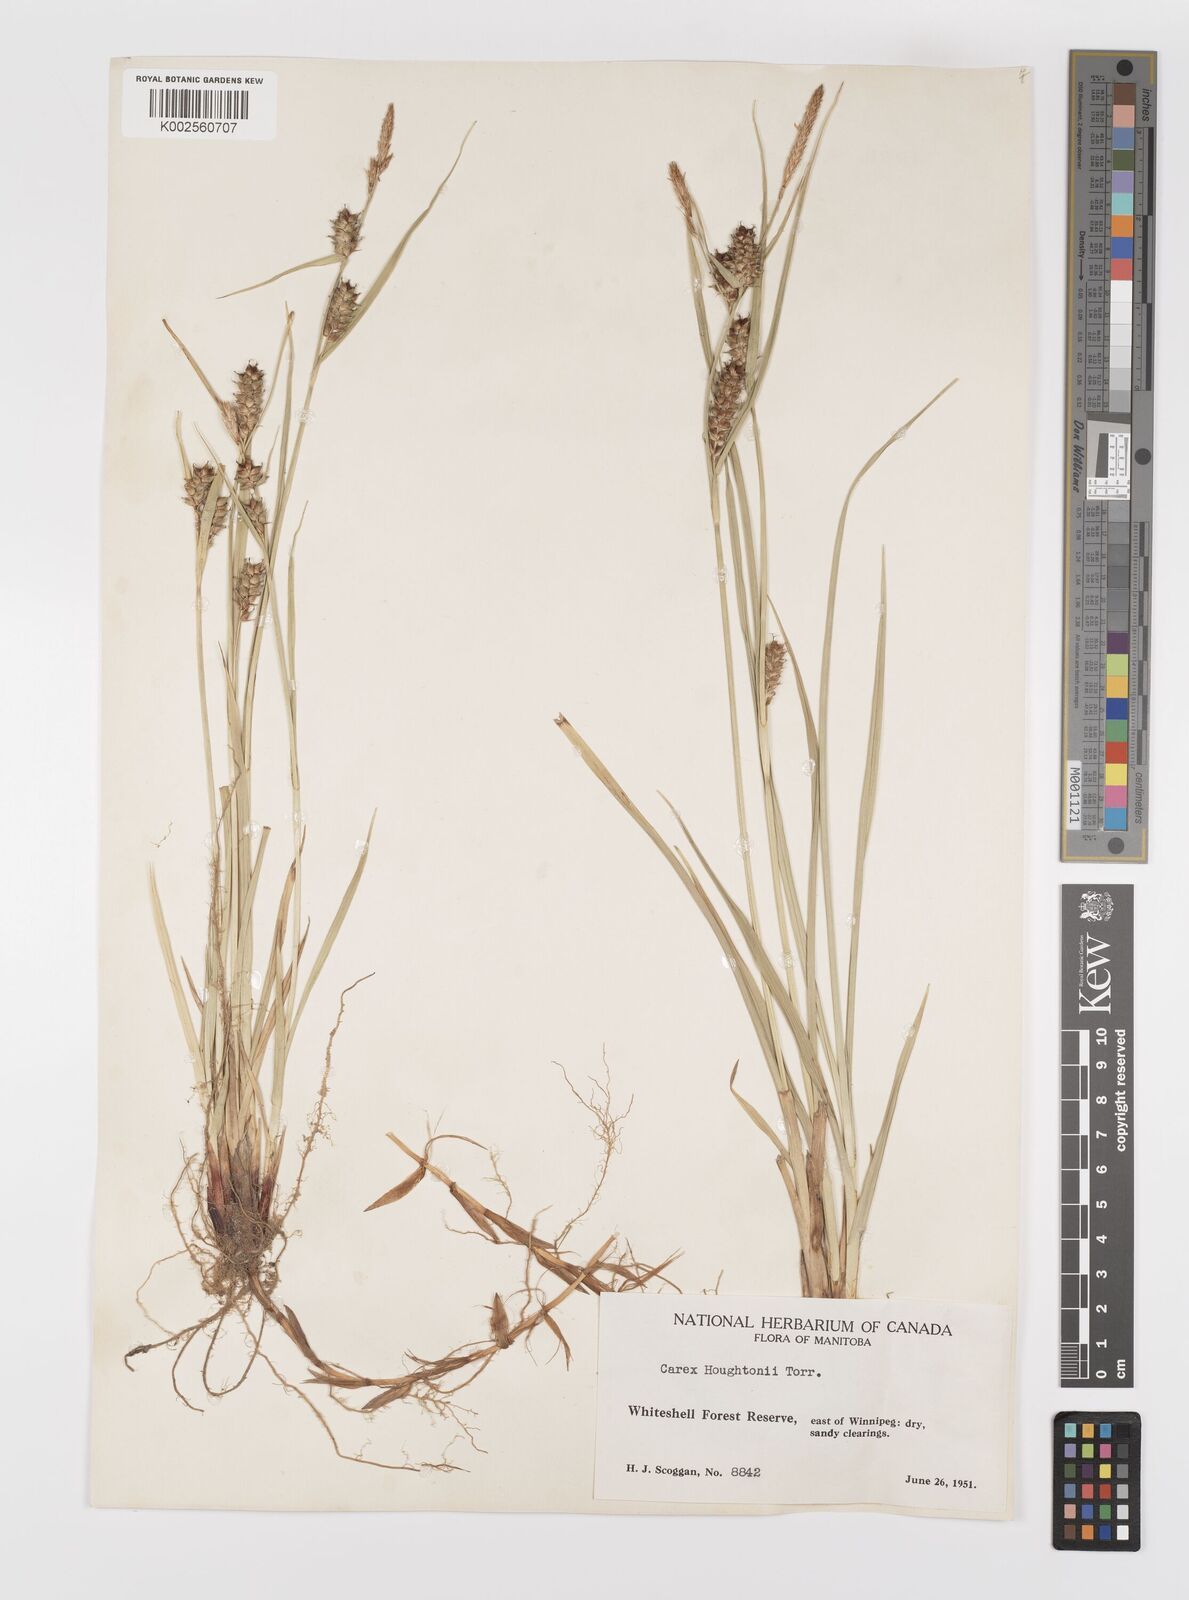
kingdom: Plantae
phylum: Tracheophyta
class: Liliopsida
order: Poales
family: Cyperaceae
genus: Carex
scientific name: Carex houghtoniana
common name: Houghton's sedge
